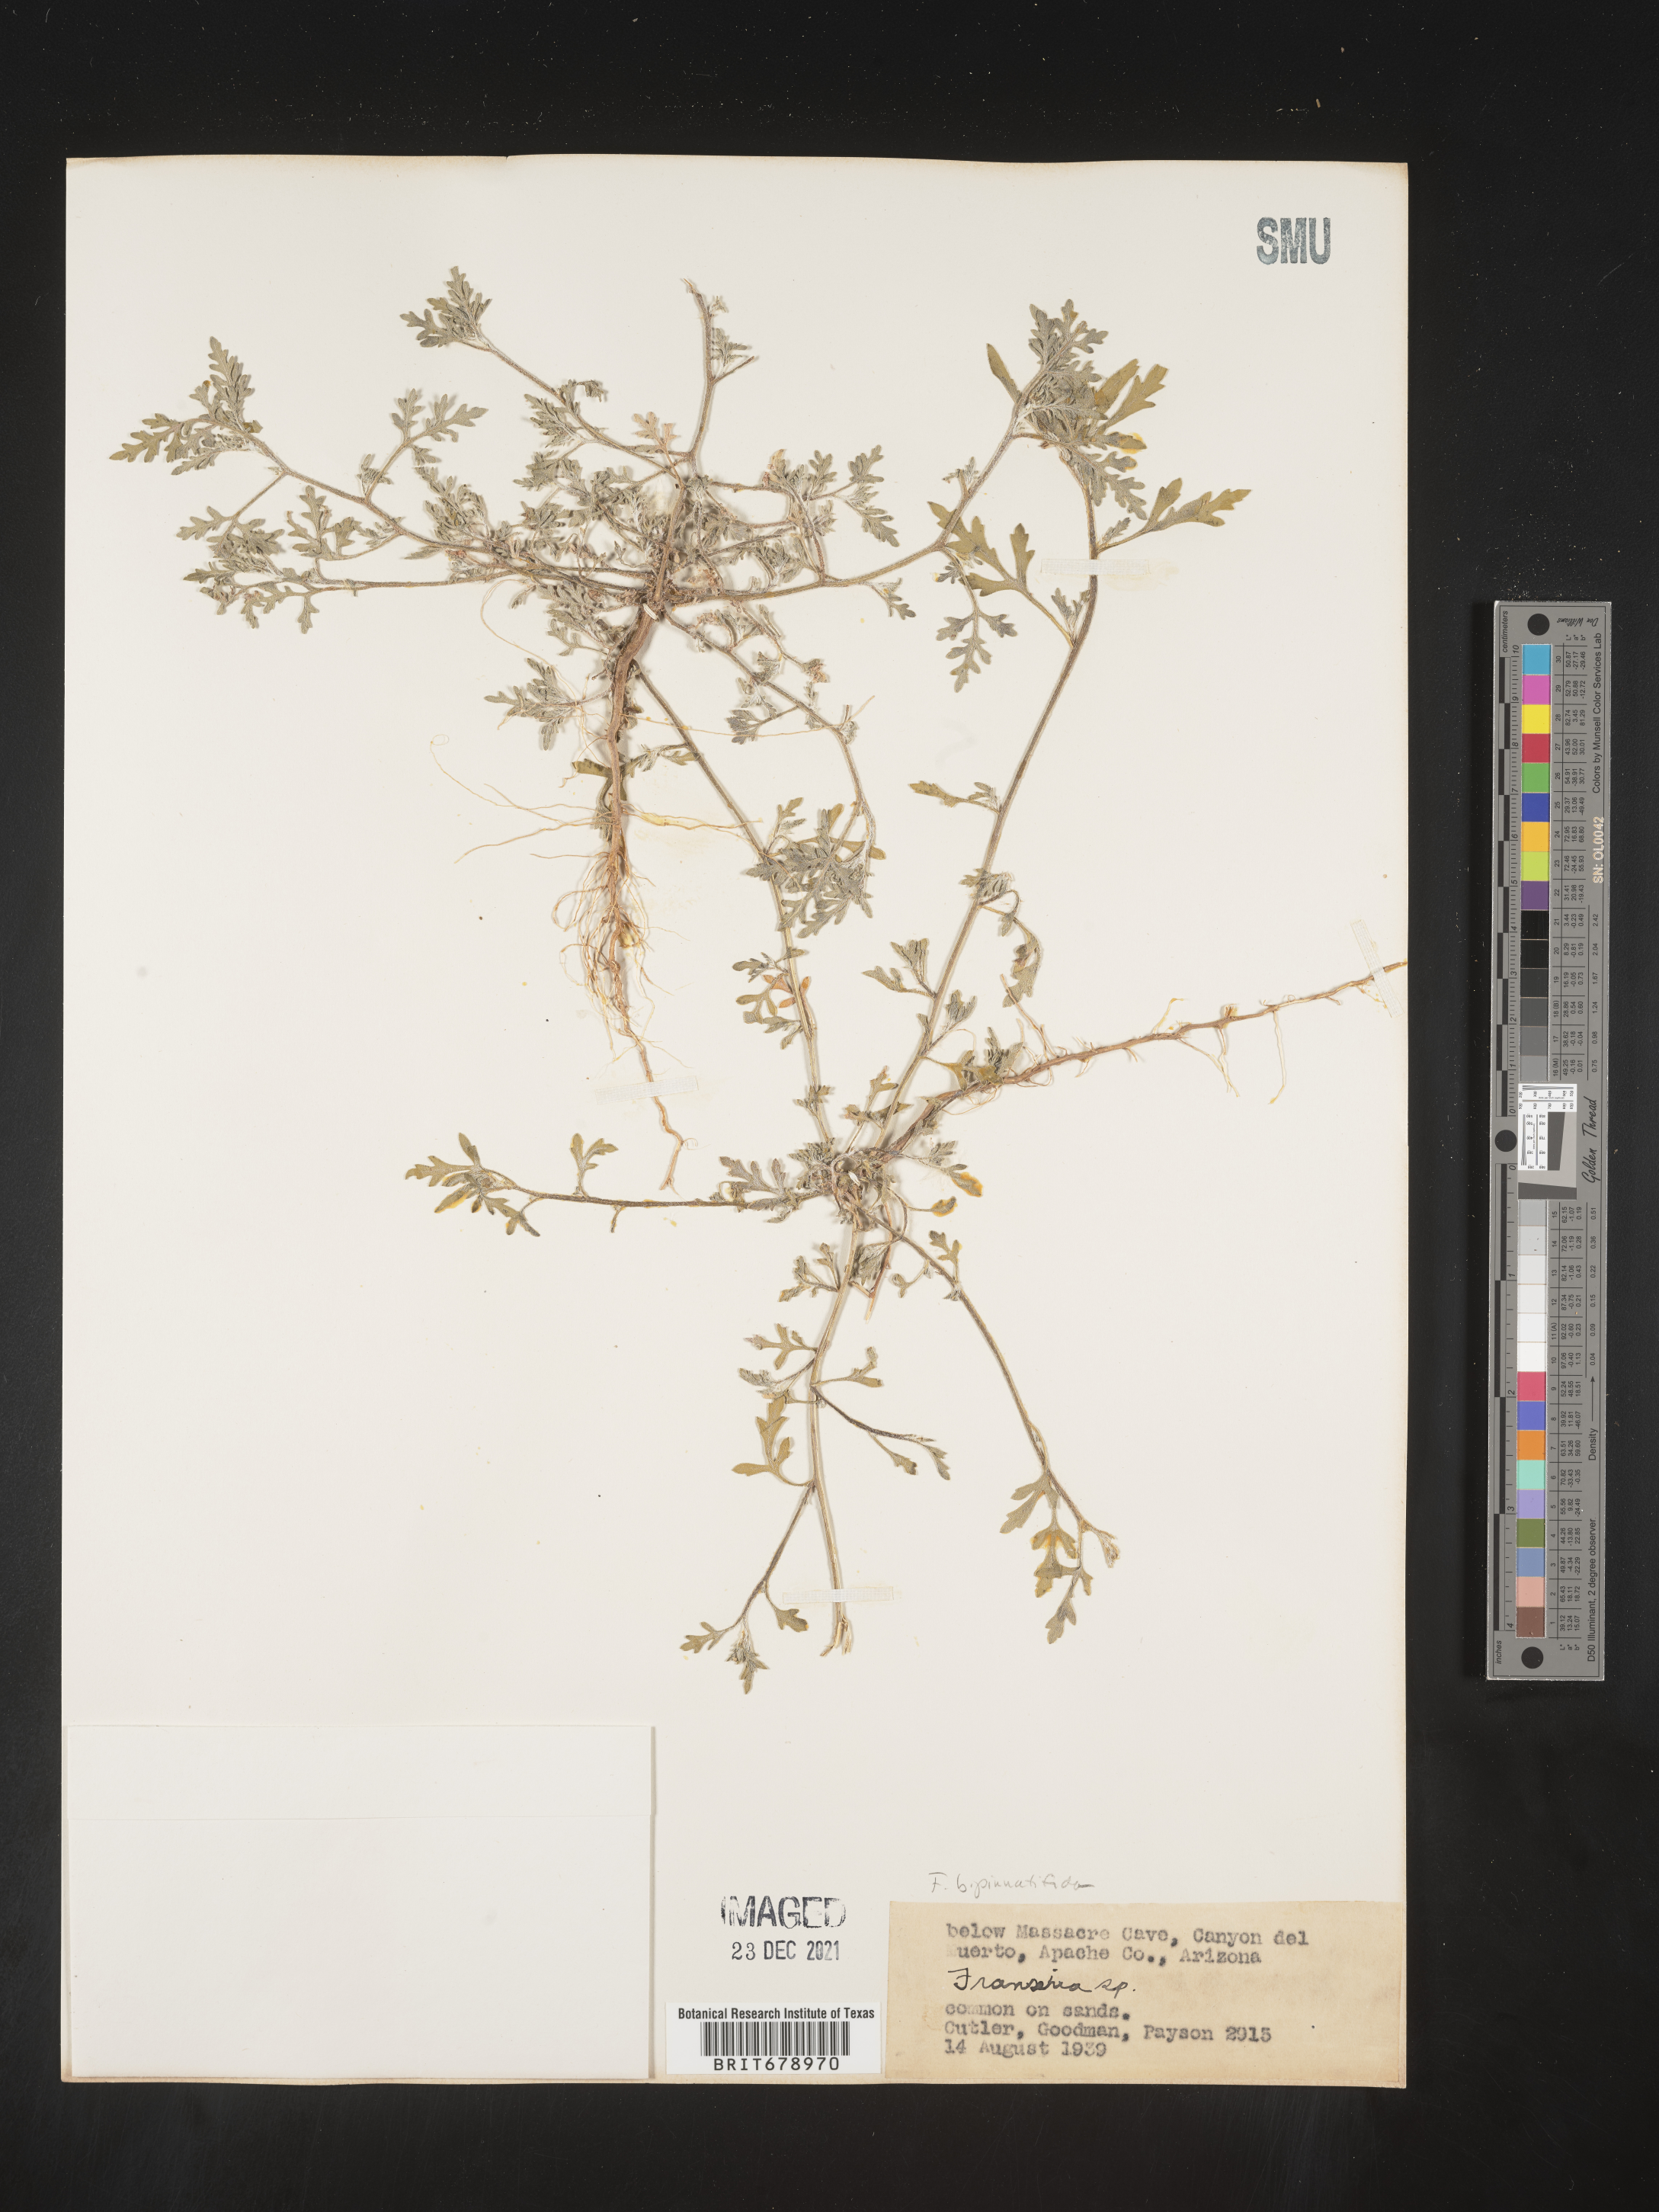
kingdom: Plantae
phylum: Tracheophyta
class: Magnoliopsida
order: Asterales
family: Asteraceae
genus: Ambrosia
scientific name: Ambrosia camphorata
